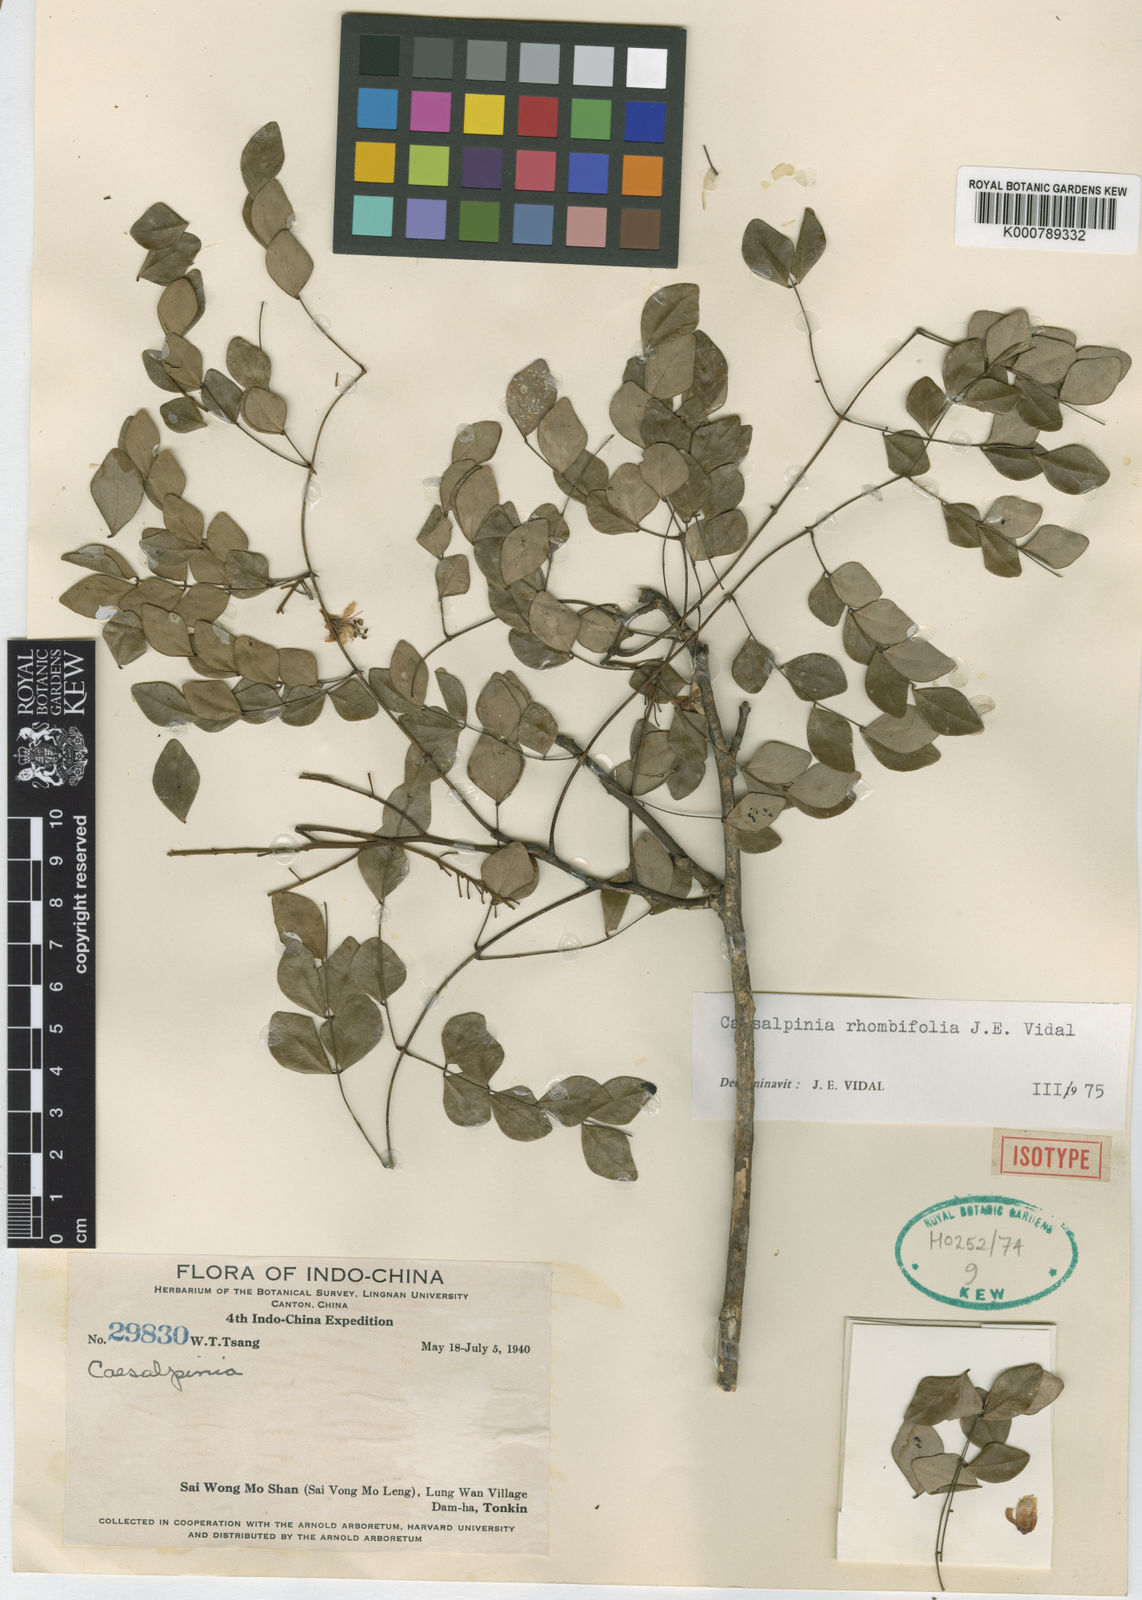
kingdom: Plantae
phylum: Tracheophyta
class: Magnoliopsida
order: Fabales
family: Fabaceae
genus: Caesalpinia
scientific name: Caesalpinia Ticanto rhombifolia
